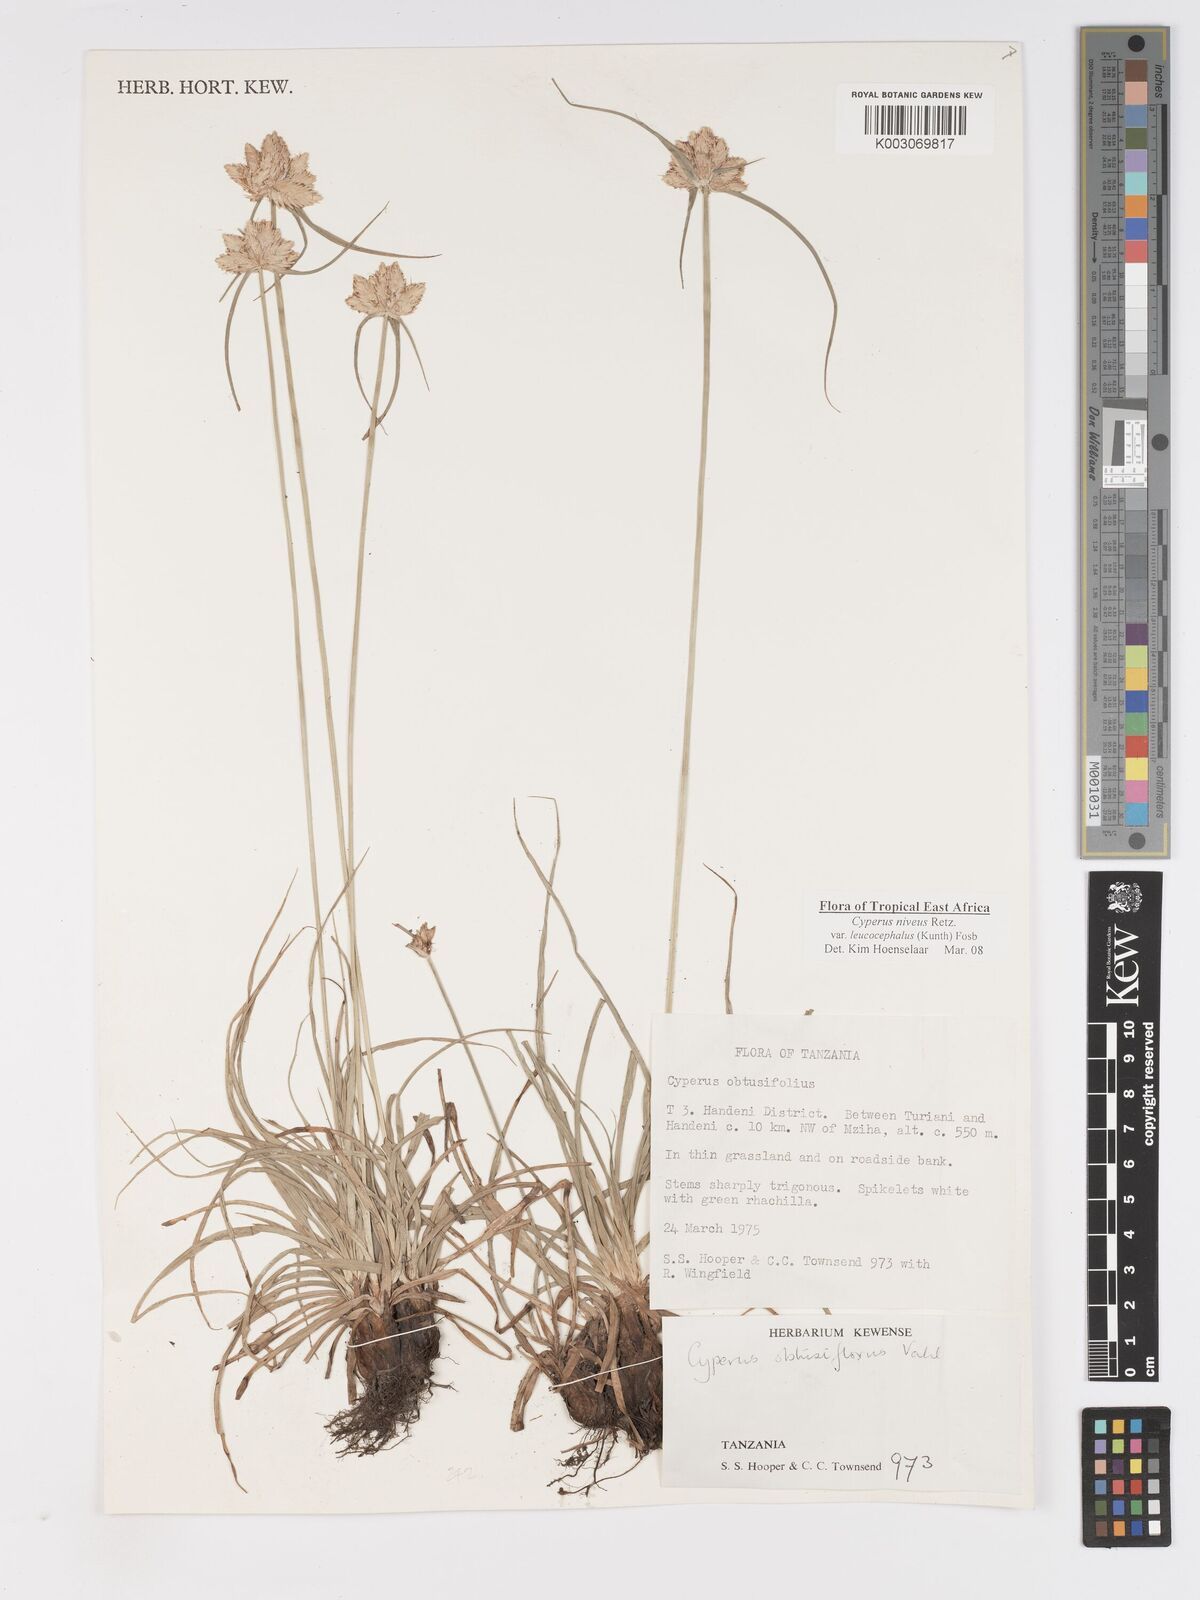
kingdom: Plantae
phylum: Tracheophyta
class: Liliopsida
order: Poales
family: Cyperaceae
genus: Cyperus
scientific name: Cyperus niveus
